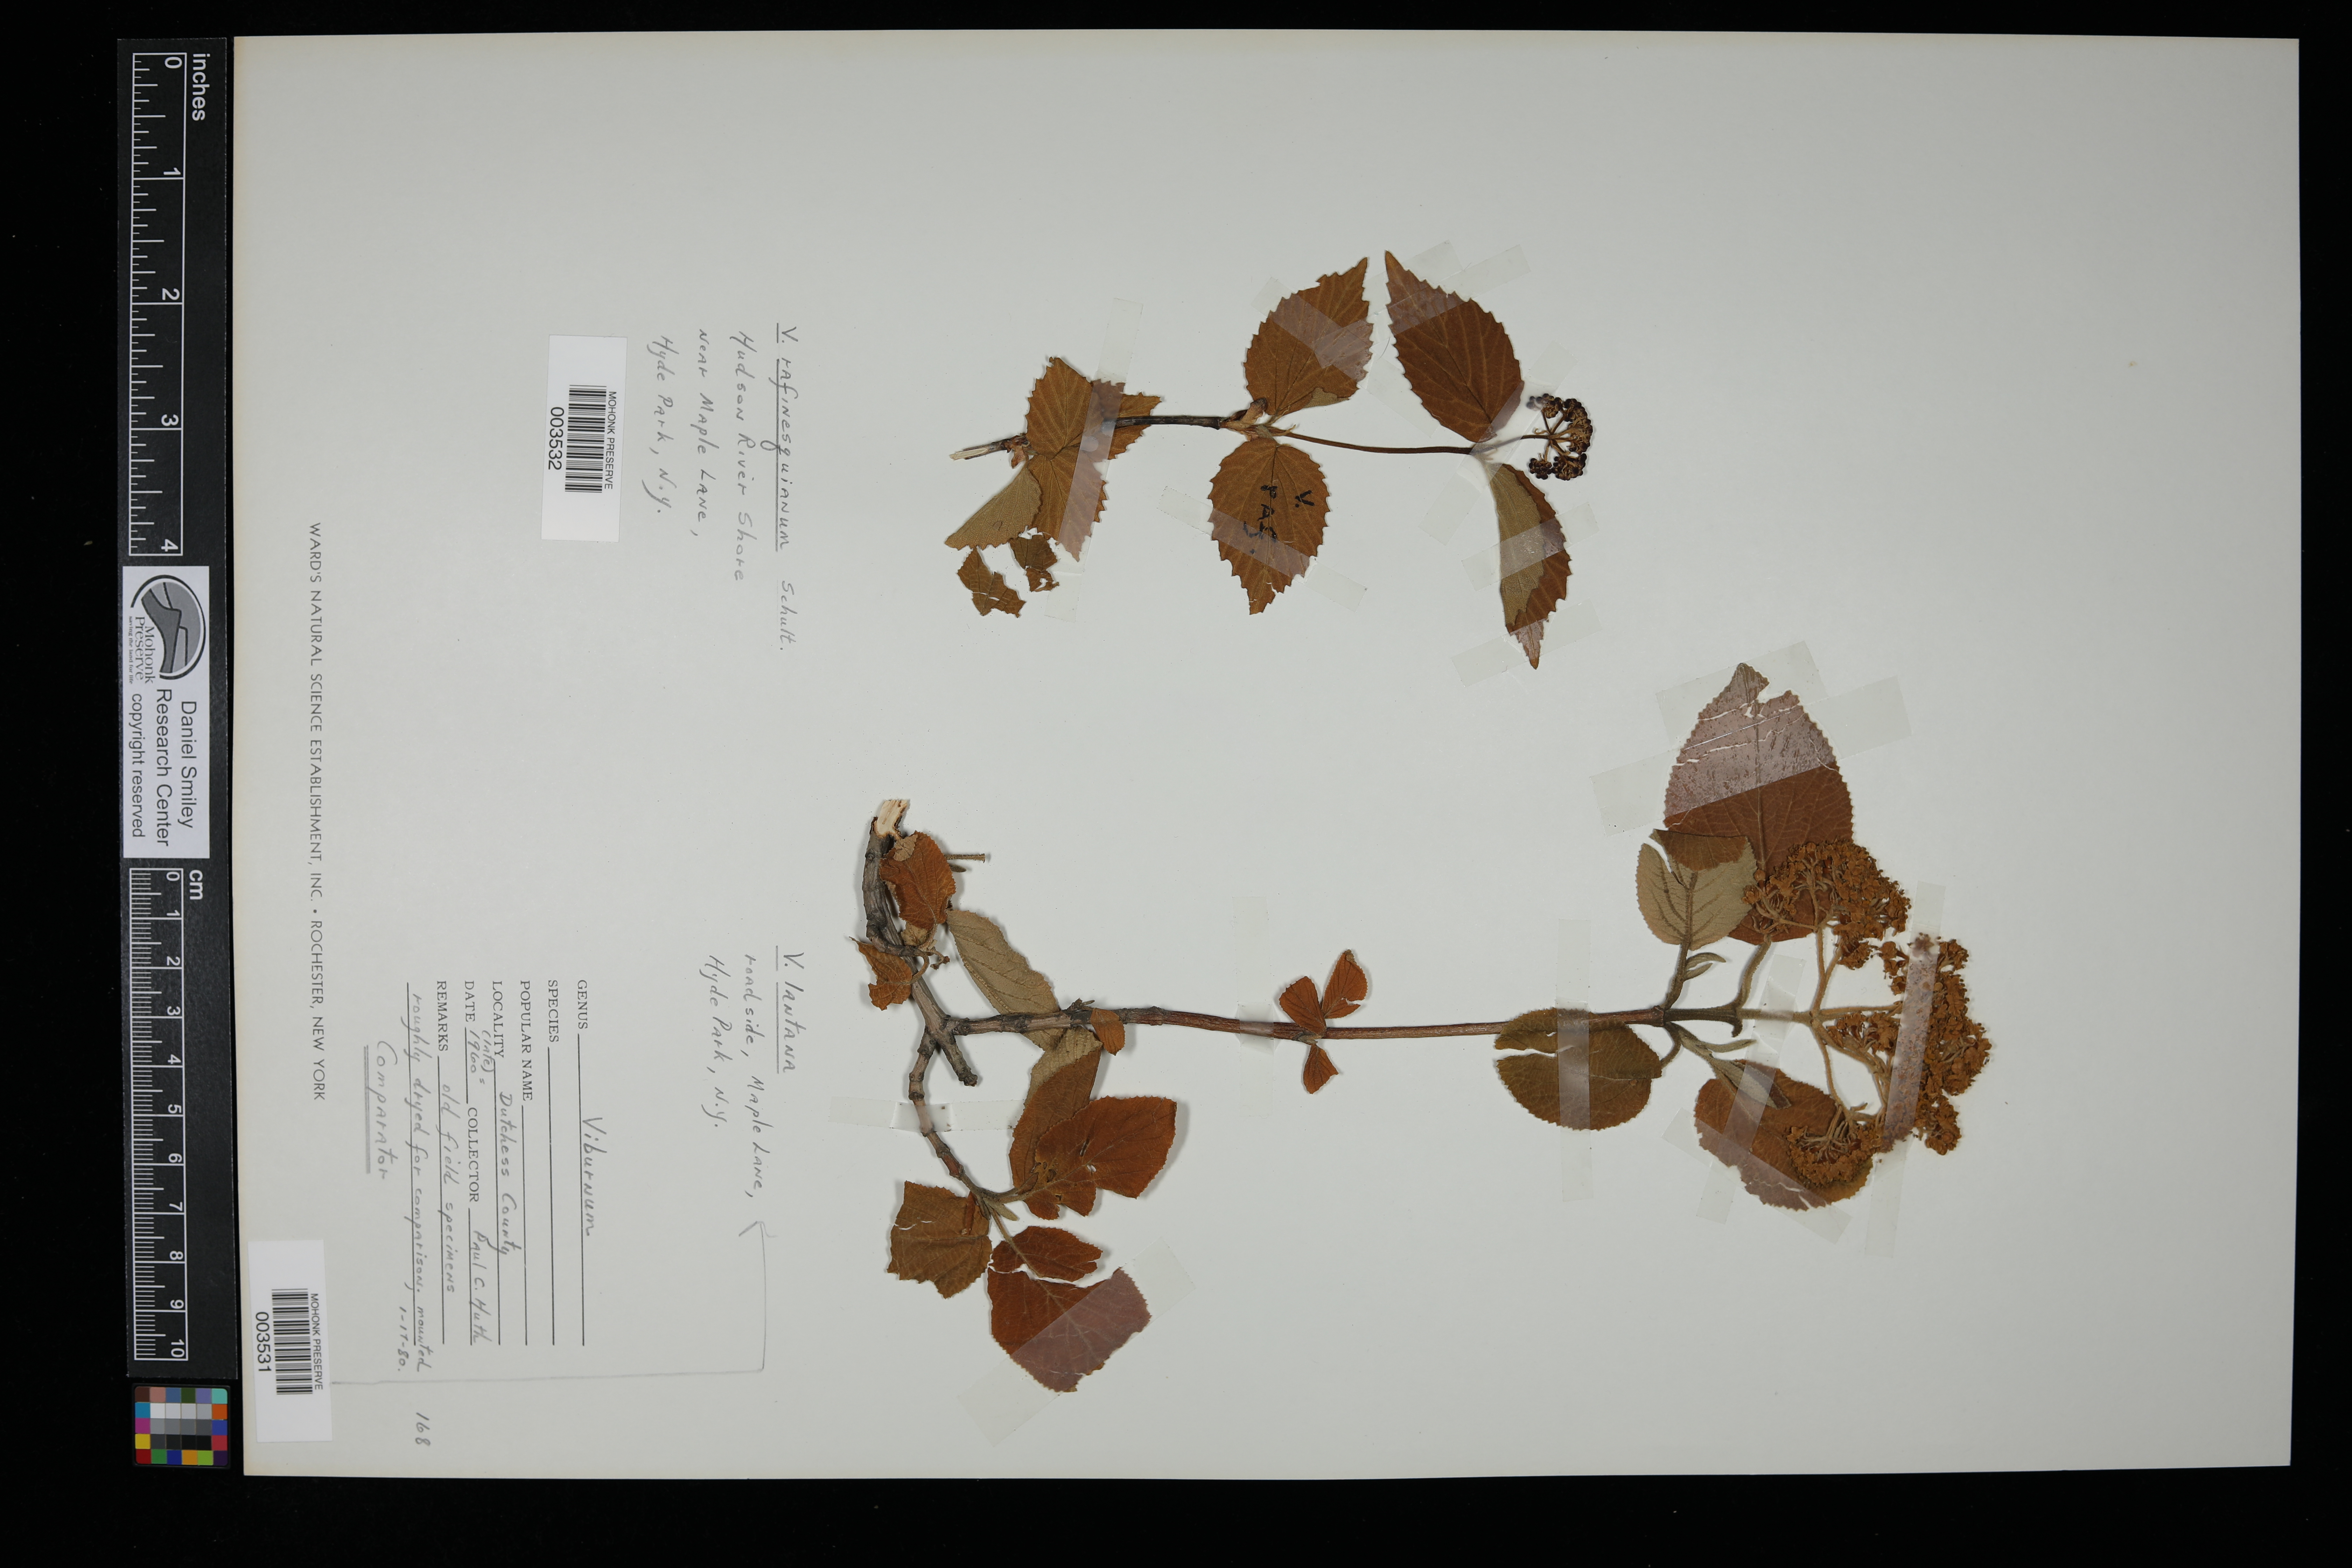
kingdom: Plantae
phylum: Tracheophyta
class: Magnoliopsida
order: Dipsacales
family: Viburnaceae
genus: Viburnum
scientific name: Viburnum rafinesquianum
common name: Downy arrow-wood
